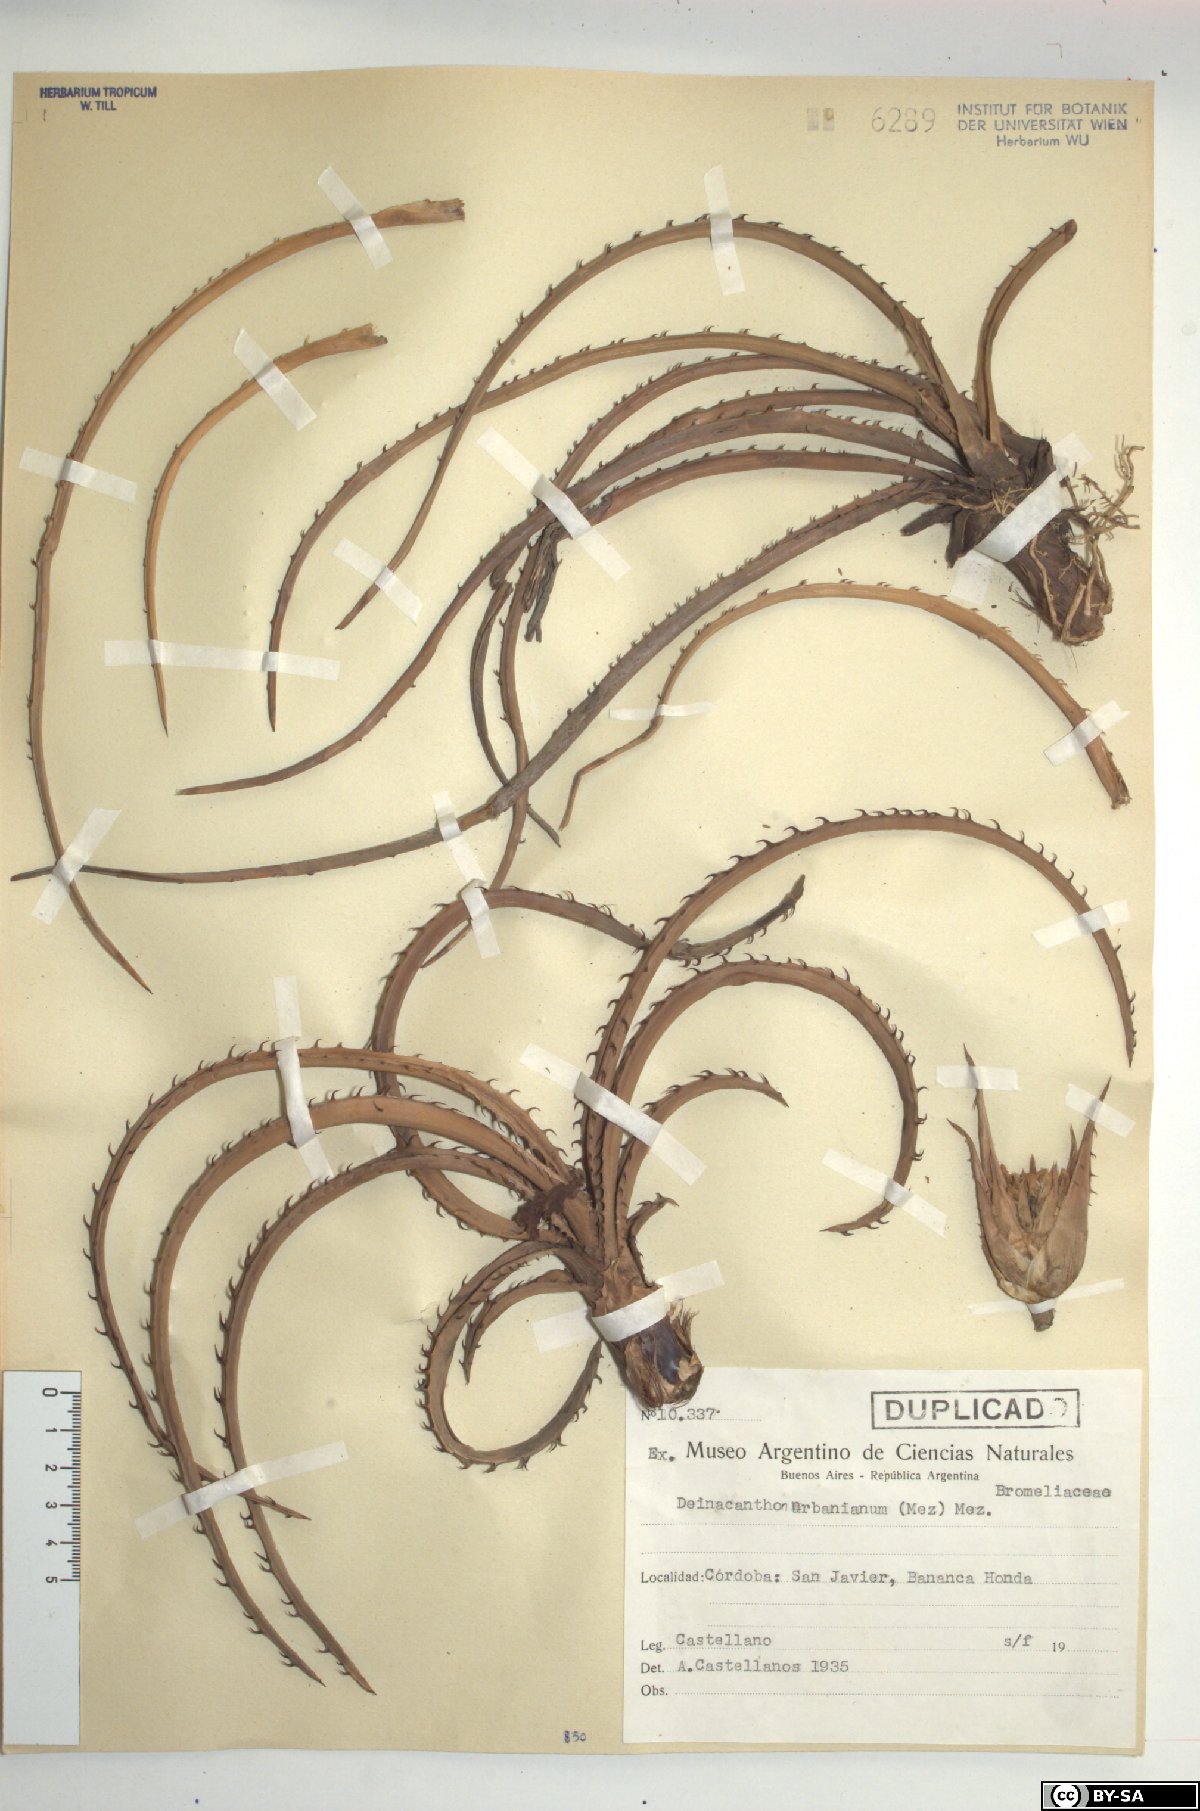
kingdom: Plantae
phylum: Tracheophyta
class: Liliopsida
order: Poales
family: Bromeliaceae
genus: Deinacanthon
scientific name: Deinacanthon urbanianum
